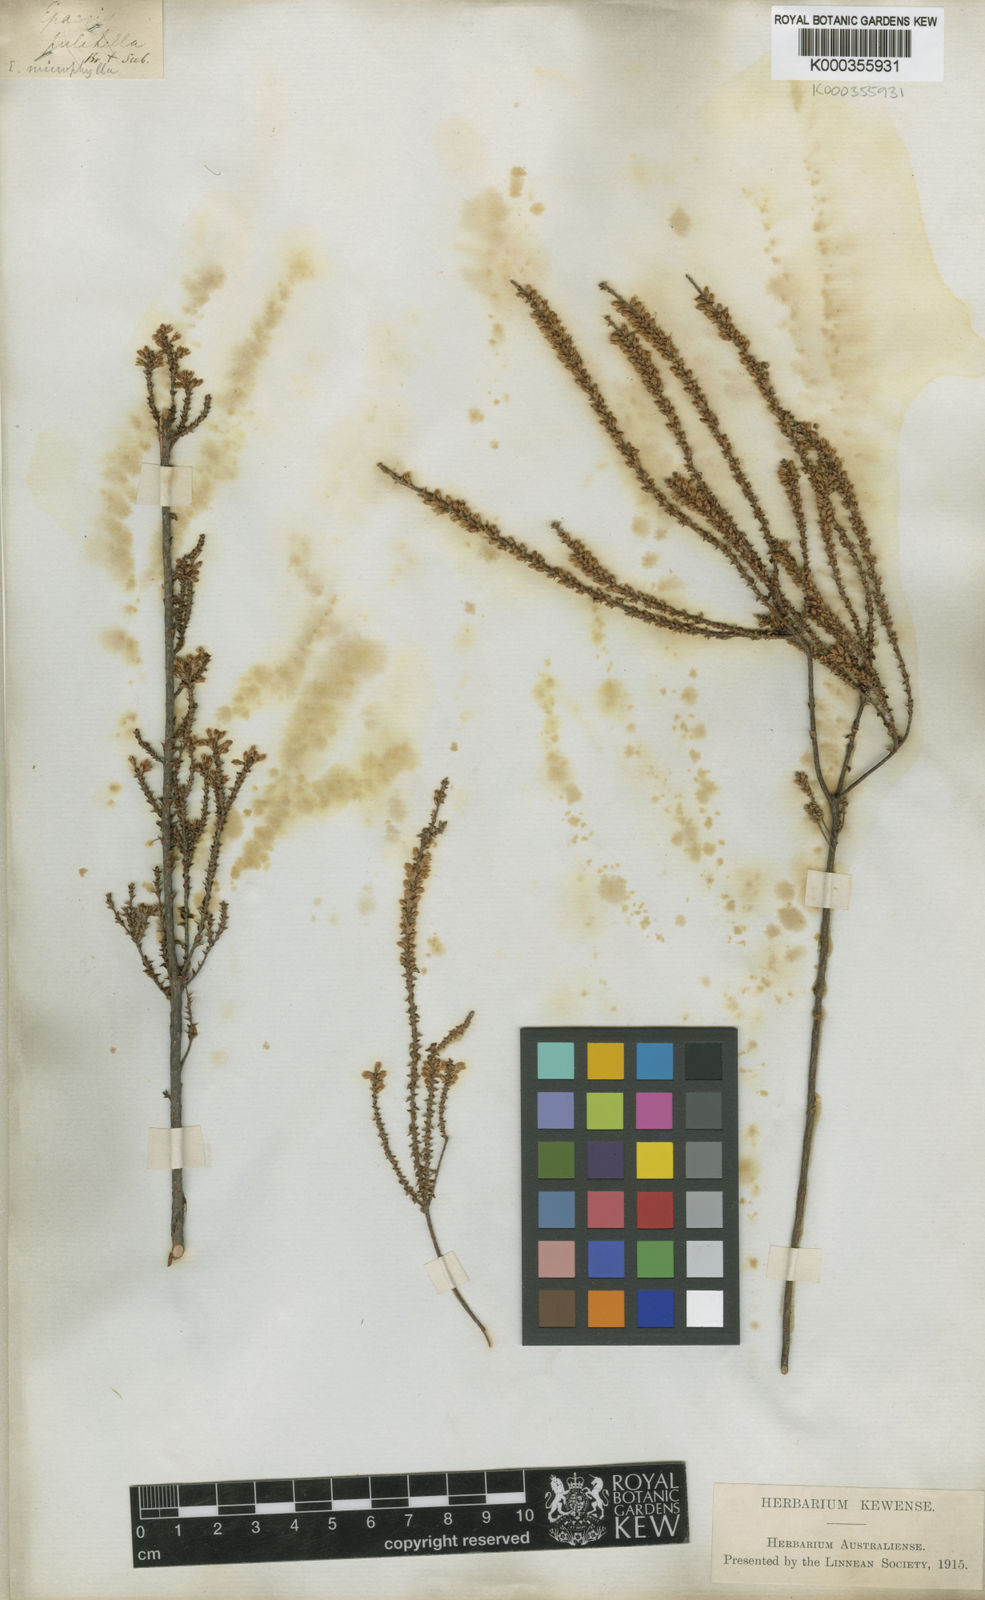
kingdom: Plantae
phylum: Tracheophyta
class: Magnoliopsida
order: Ericales
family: Ericaceae
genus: Epacris
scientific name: Epacris
